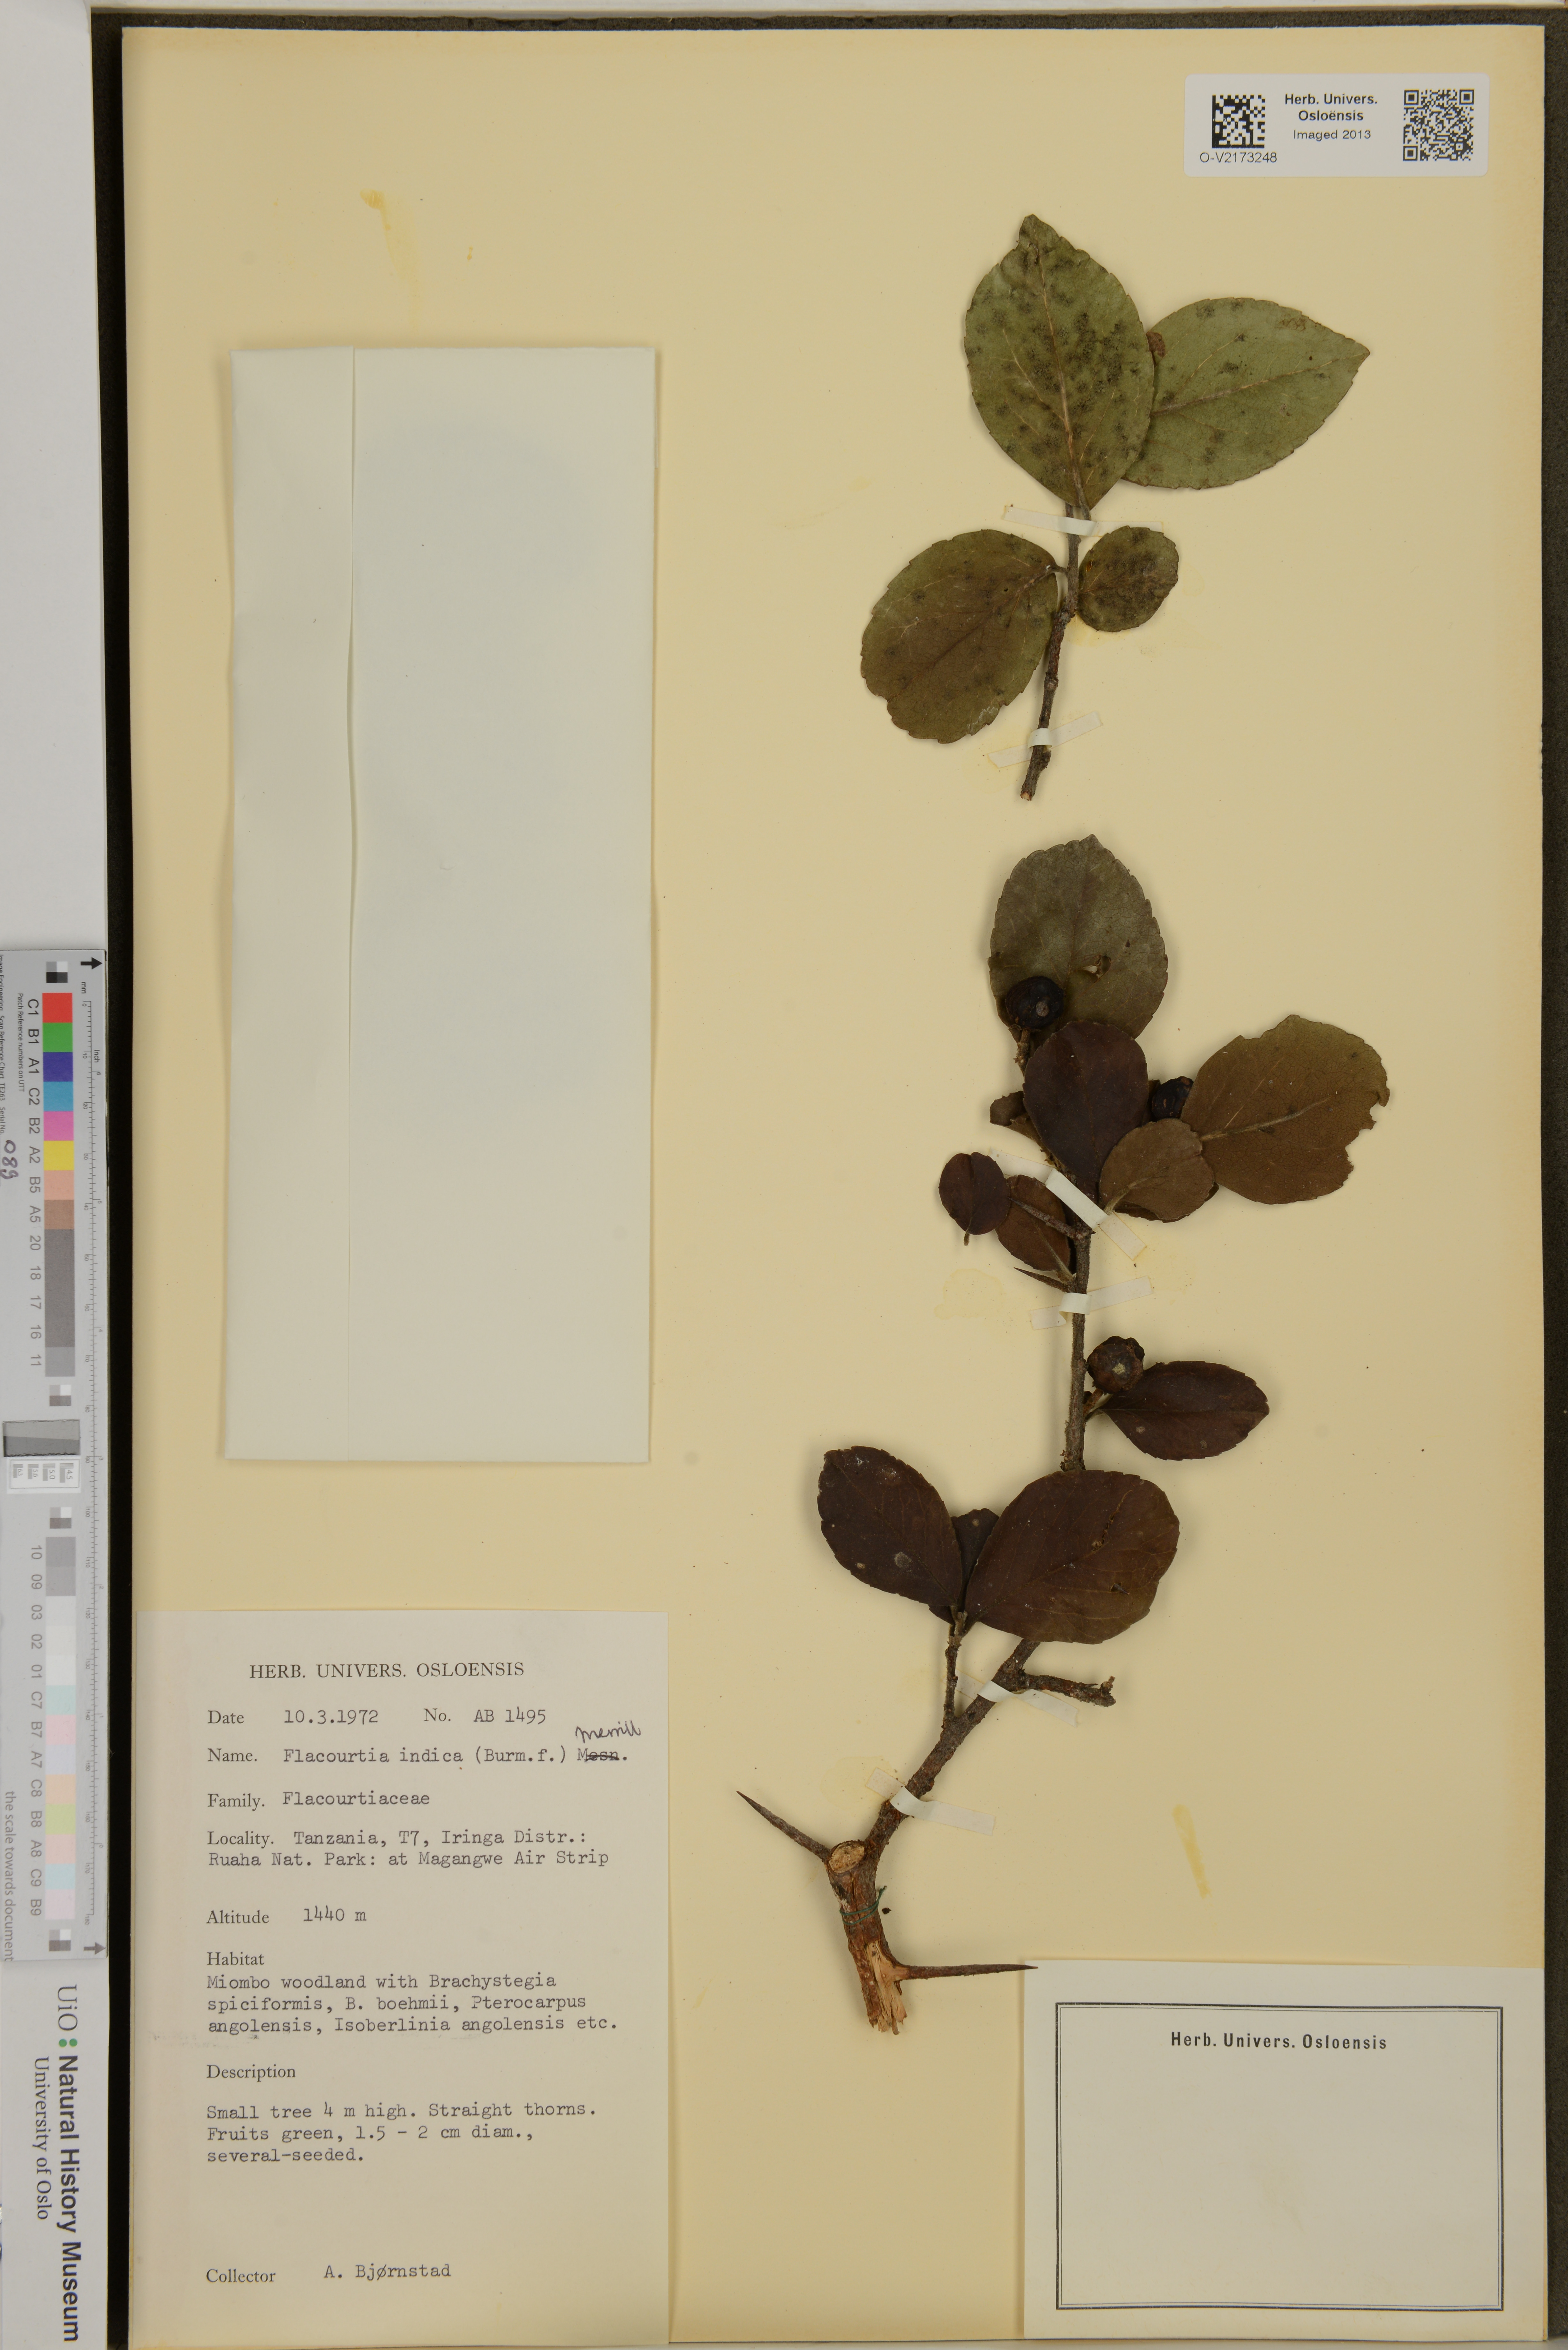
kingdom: Plantae
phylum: Tracheophyta
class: Magnoliopsida
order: Malpighiales
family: Salicaceae
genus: Flacourtia
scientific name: Flacourtia indica
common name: Governor's plum
